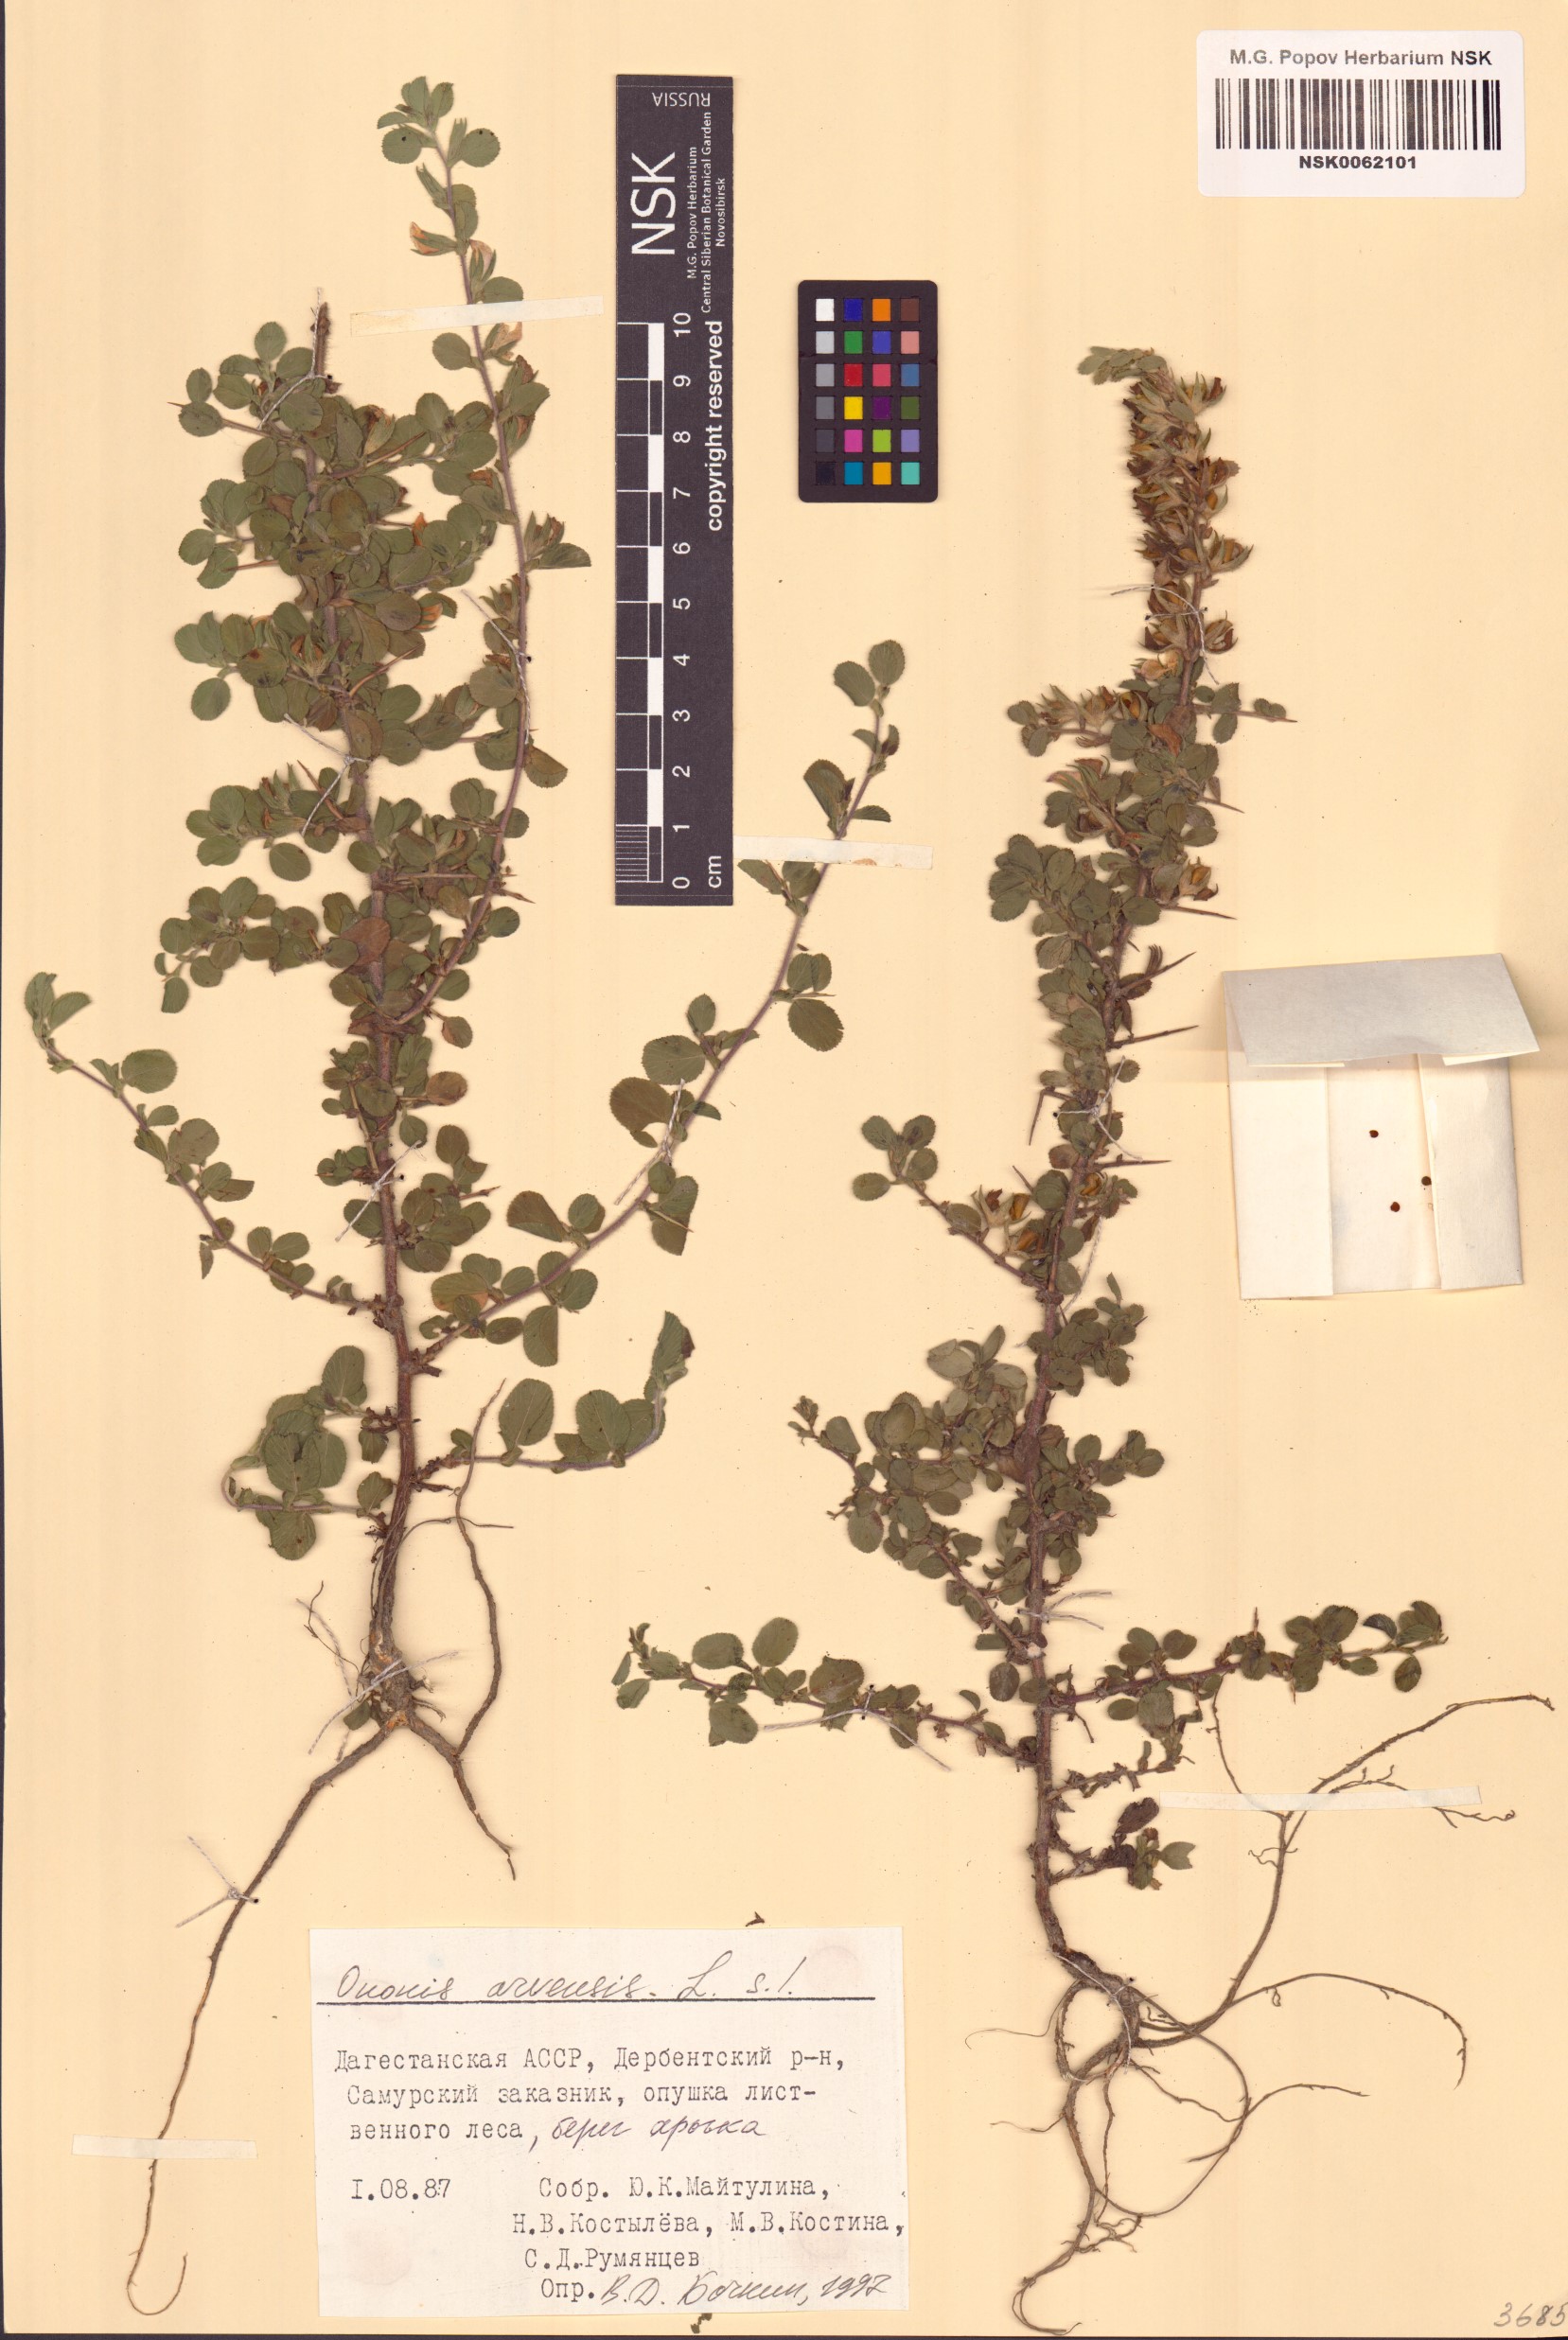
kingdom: Plantae
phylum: Tracheophyta
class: Magnoliopsida
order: Fabales
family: Fabaceae
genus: Ononis
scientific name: Ononis arvensis
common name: Field restharrow
